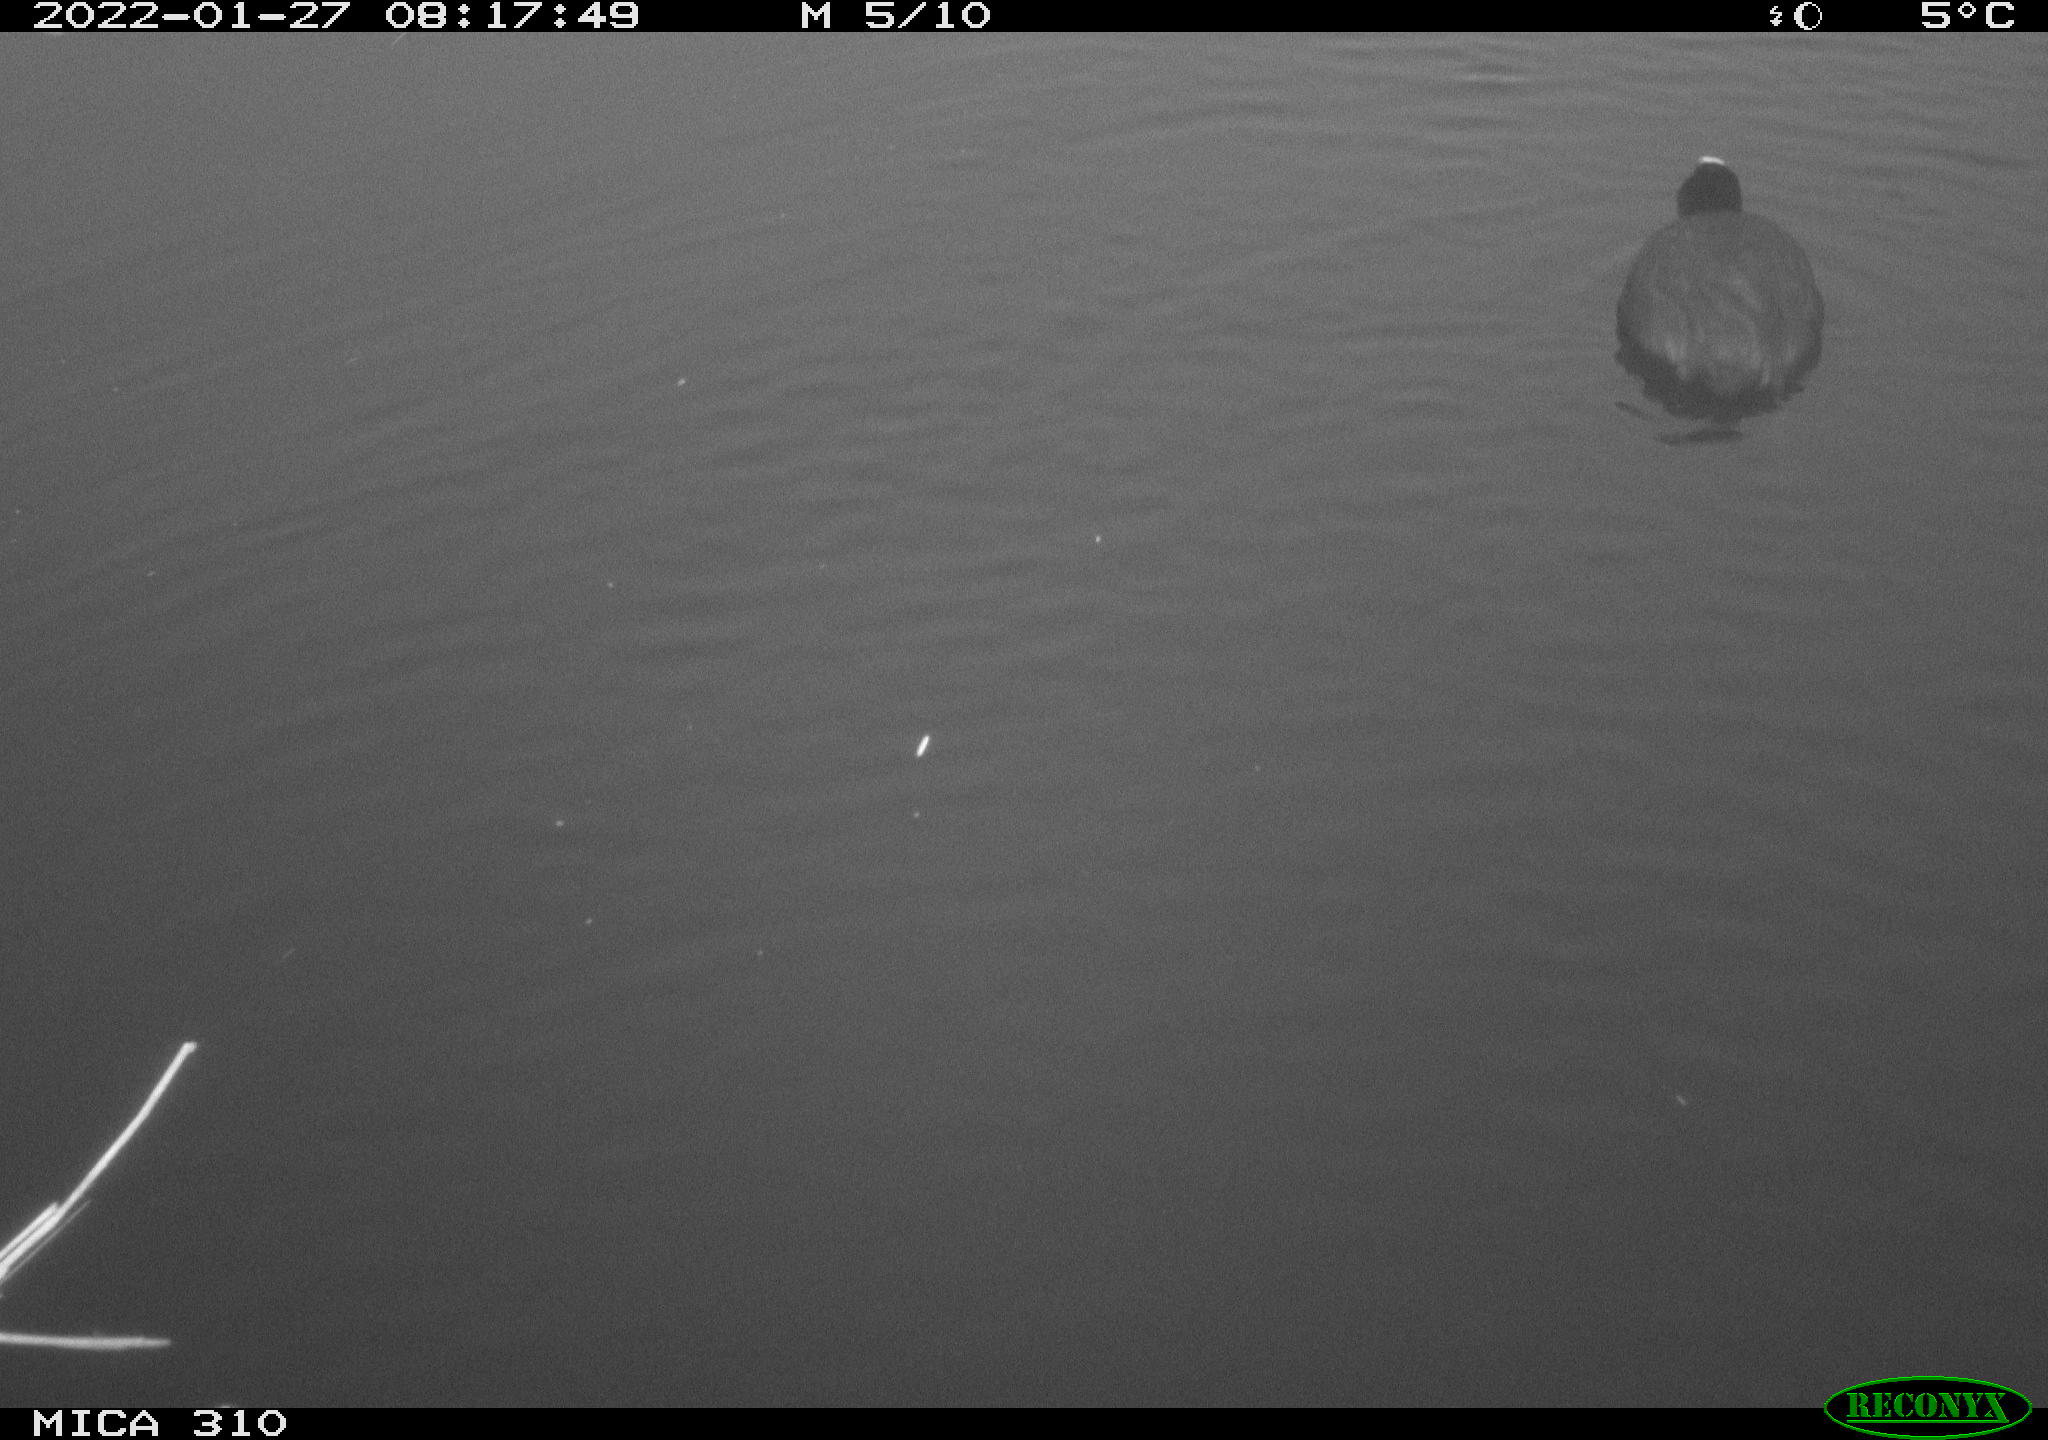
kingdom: Animalia
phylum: Chordata
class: Aves
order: Gruiformes
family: Rallidae
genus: Fulica
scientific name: Fulica atra
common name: Eurasian coot
